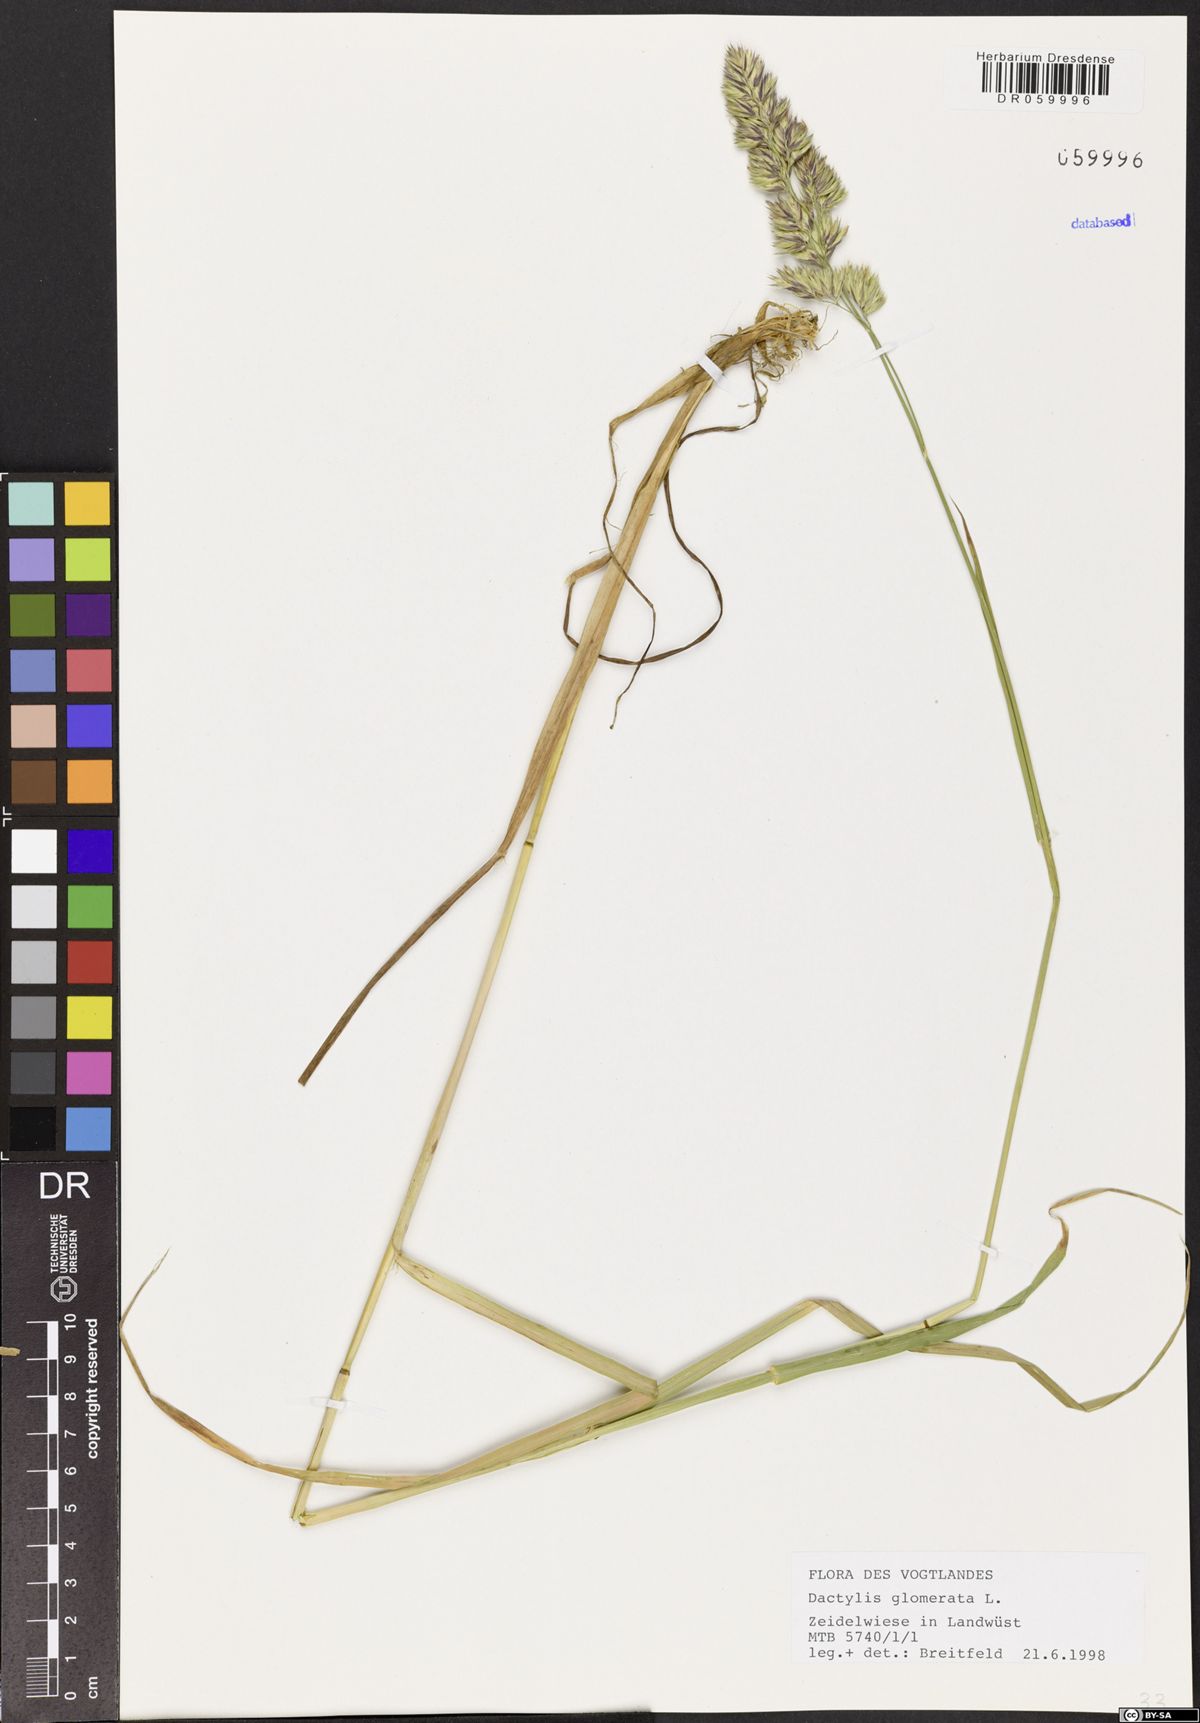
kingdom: Plantae
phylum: Tracheophyta
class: Liliopsida
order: Poales
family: Poaceae
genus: Dactylis
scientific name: Dactylis glomerata
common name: Orchardgrass
